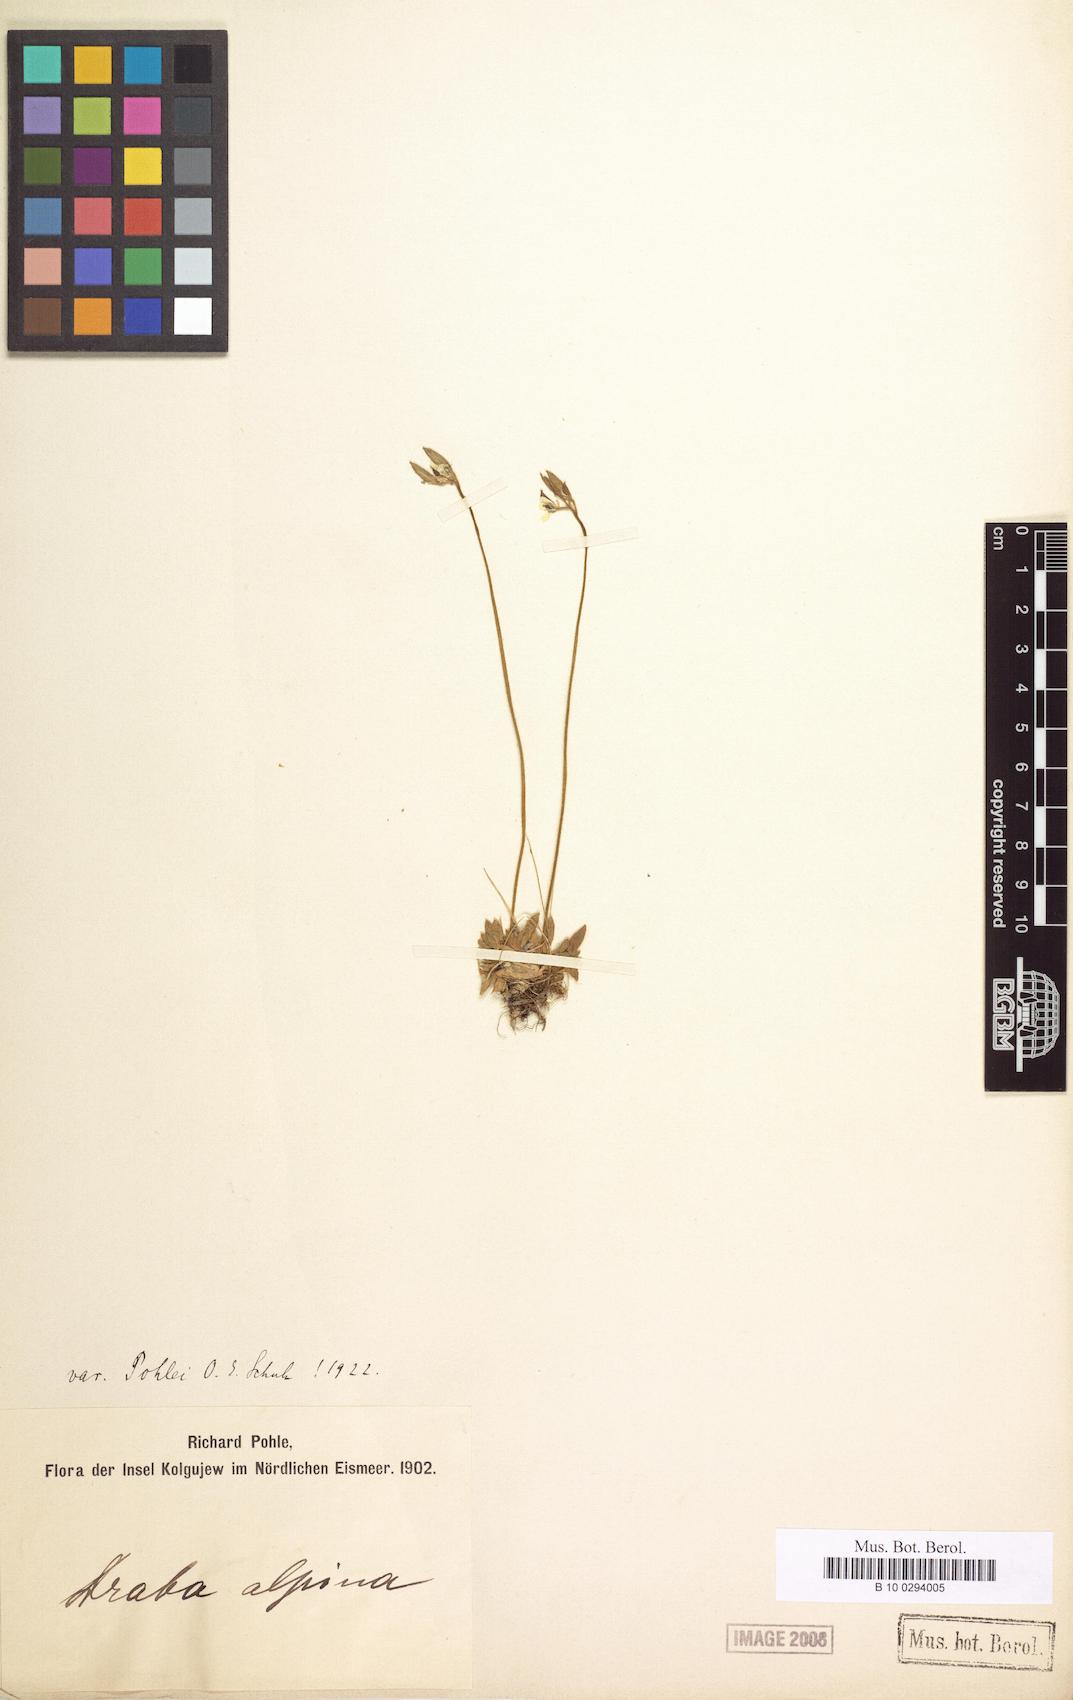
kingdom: Plantae
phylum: Tracheophyta
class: Magnoliopsida
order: Brassicales
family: Brassicaceae
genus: Draba
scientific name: Draba alpina
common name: Alpine draba
